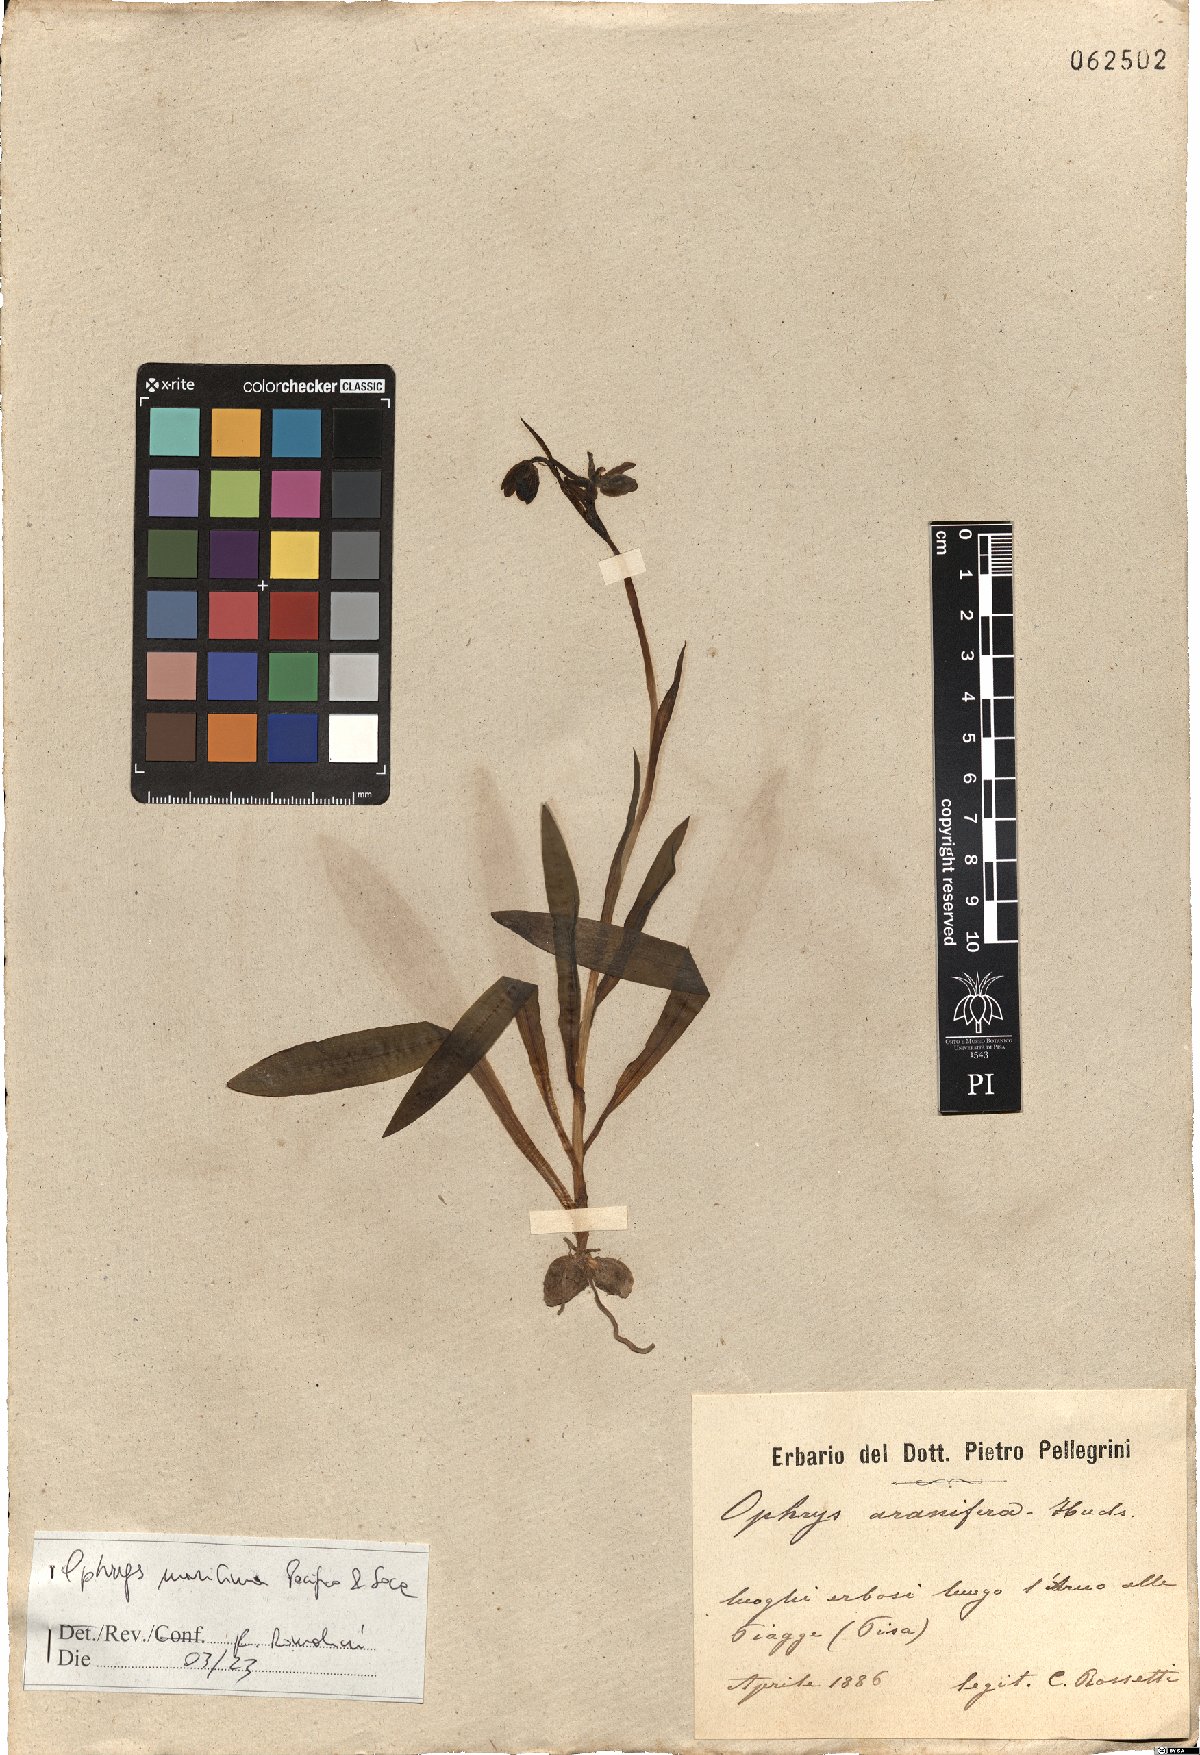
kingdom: Plantae
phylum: Tracheophyta
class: Liliopsida
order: Asparagales
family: Orchidaceae
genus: Ophrys
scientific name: Ophrys sphegodes
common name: Early spider-orchid
